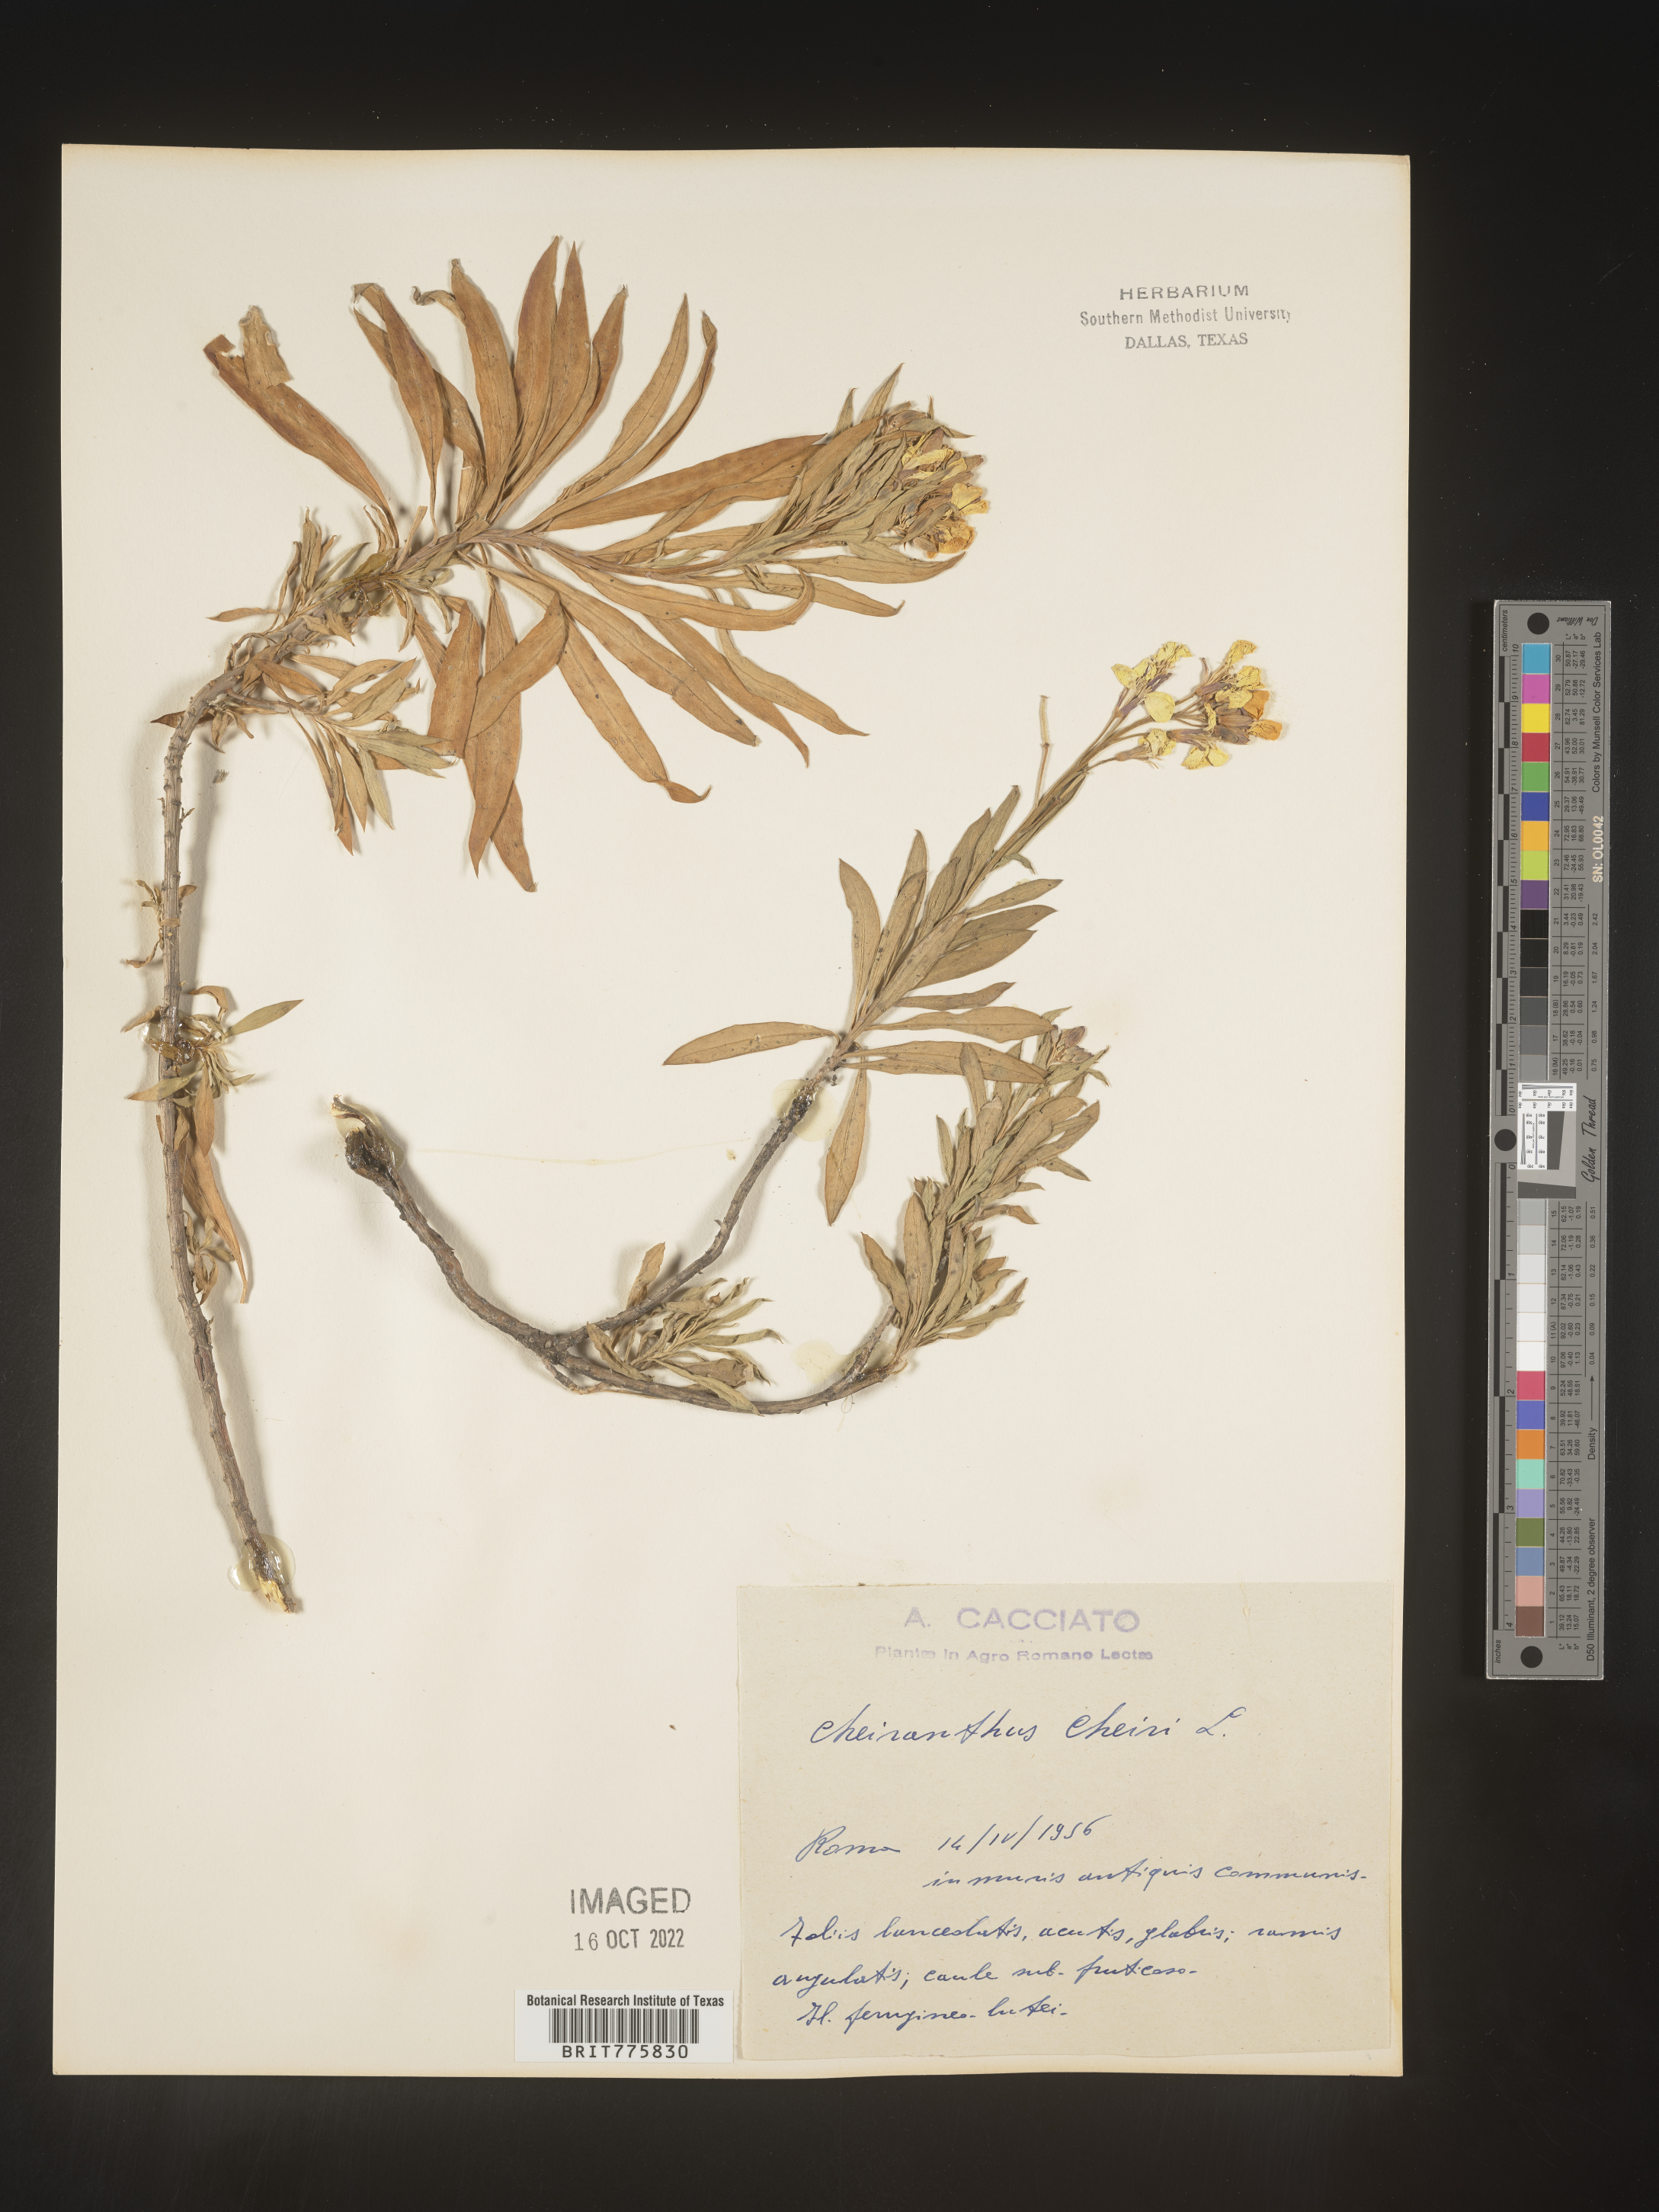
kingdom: Plantae
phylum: Tracheophyta
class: Magnoliopsida
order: Brassicales
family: Brassicaceae
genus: Erysimum
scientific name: Erysimum
